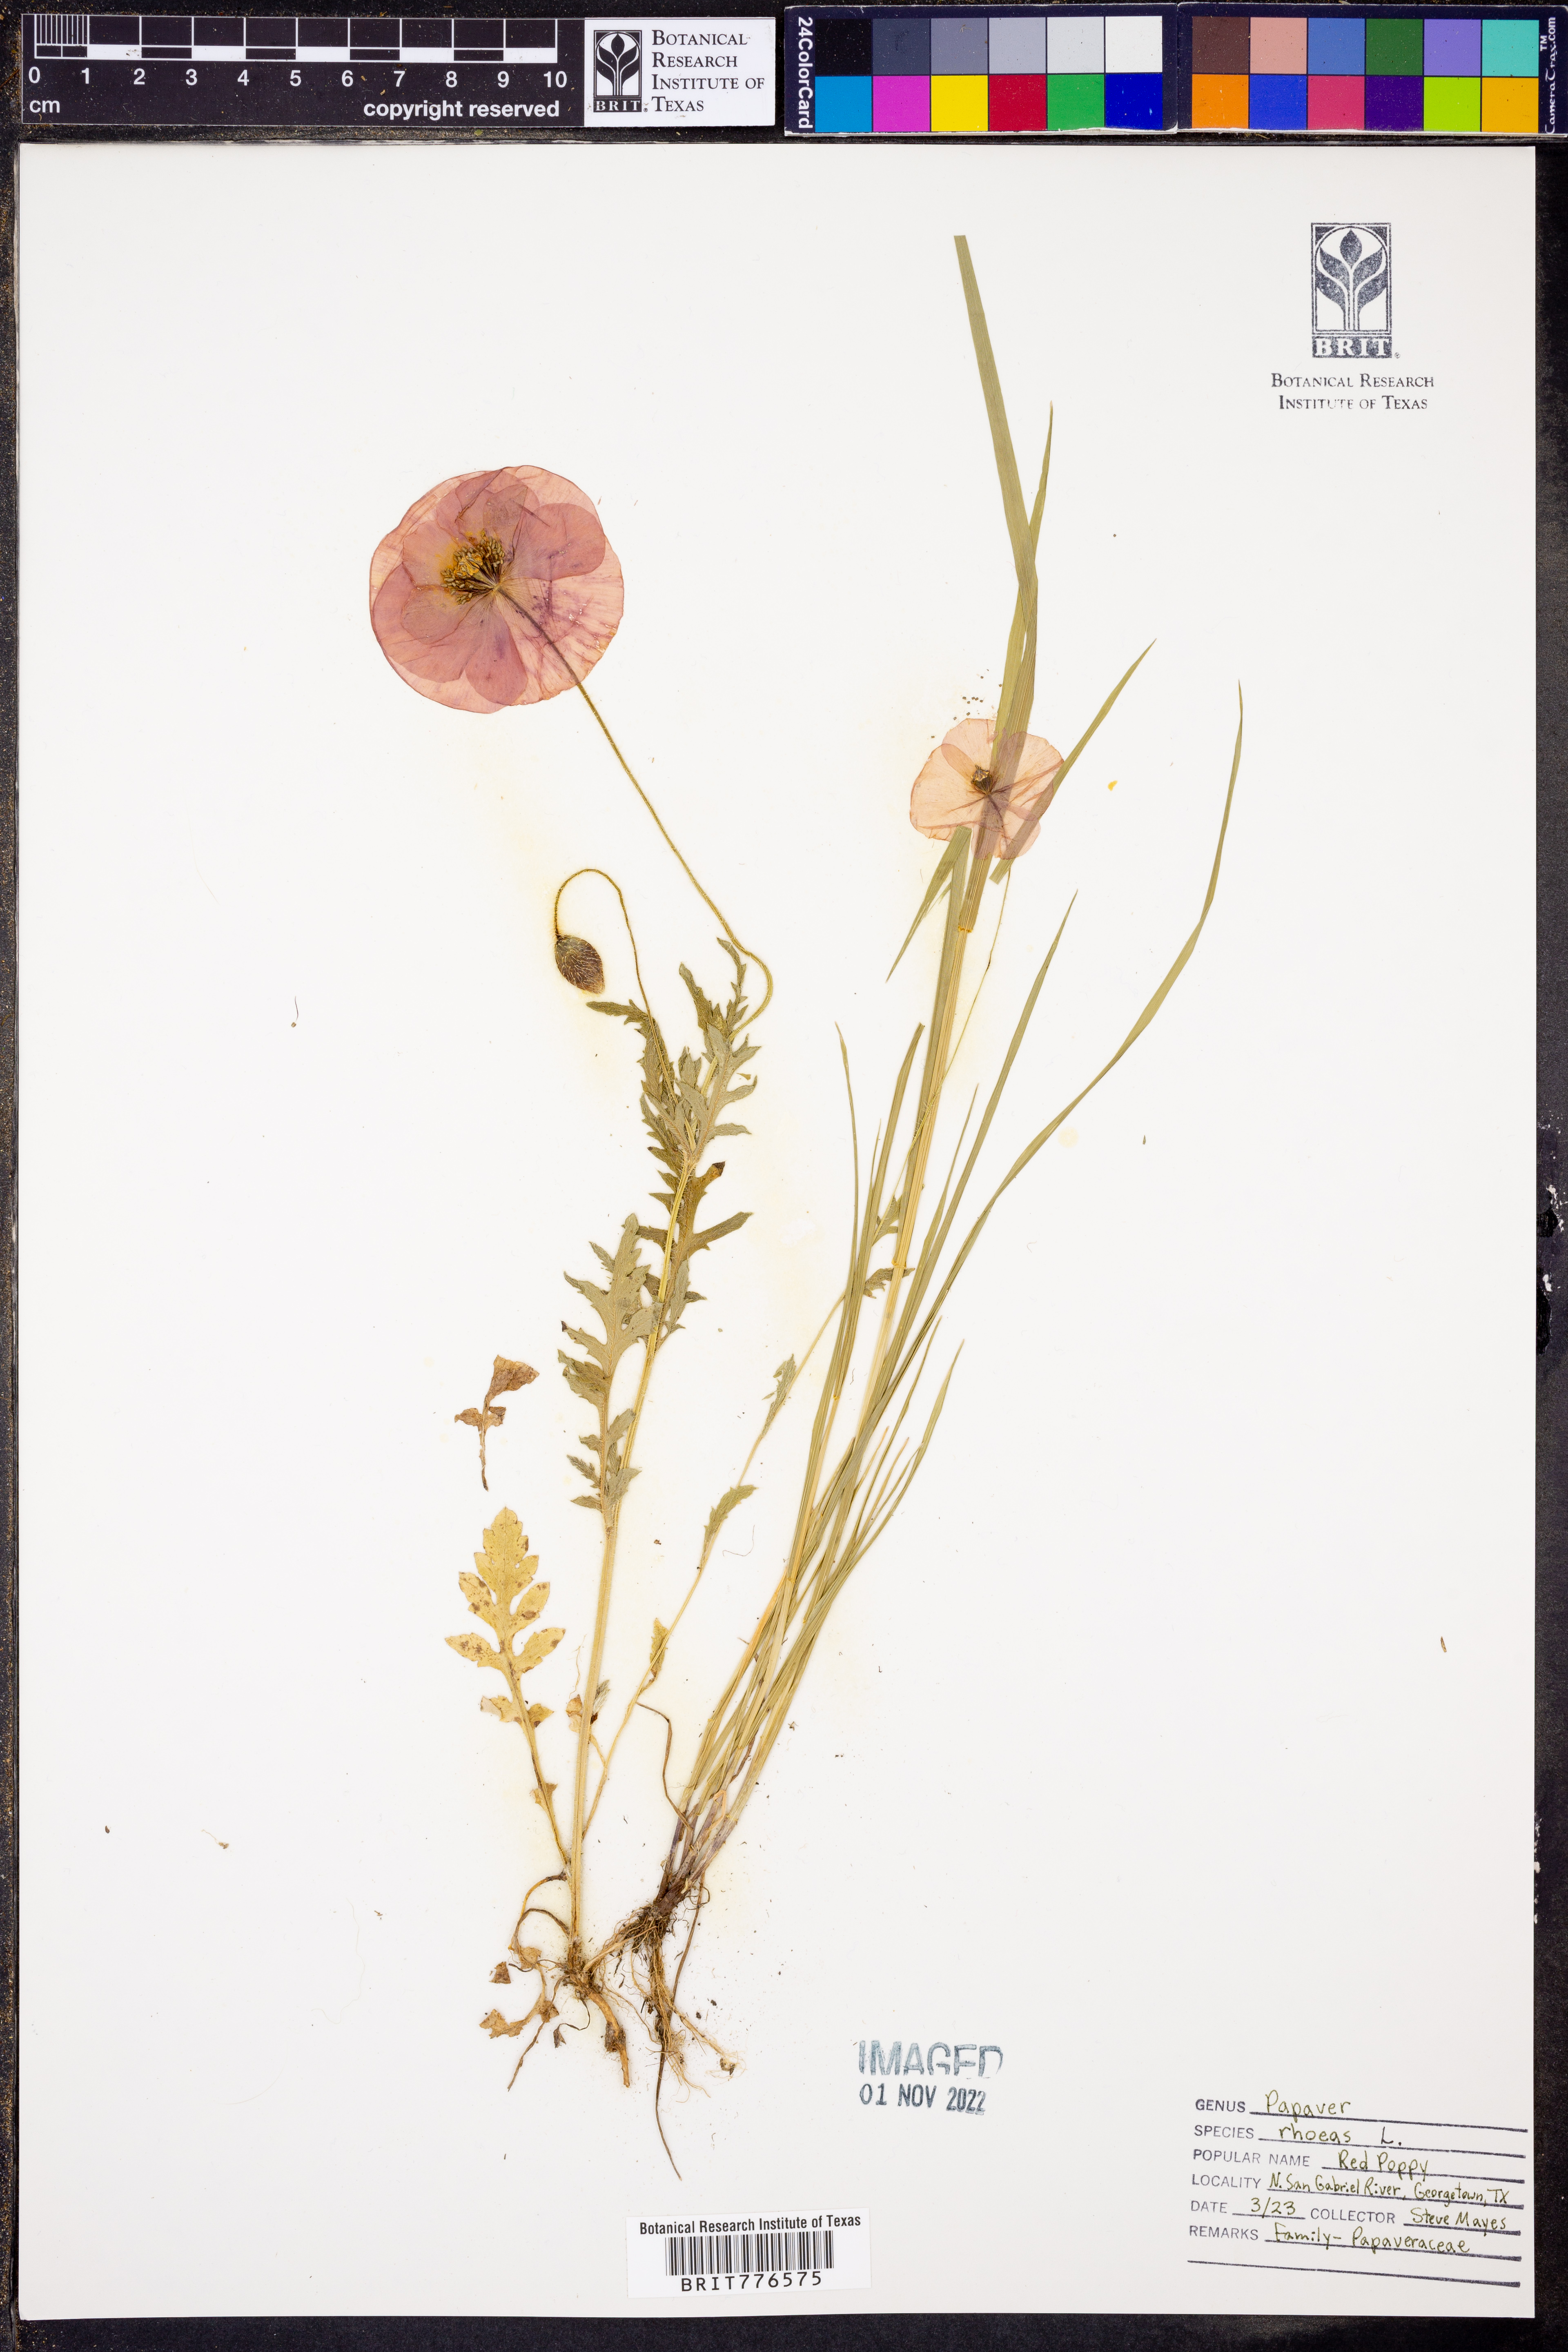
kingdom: Plantae
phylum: Tracheophyta
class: Magnoliopsida
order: Ranunculales
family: Papaveraceae
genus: Papaver
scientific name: Papaver rhoeas
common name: Corn poppy
